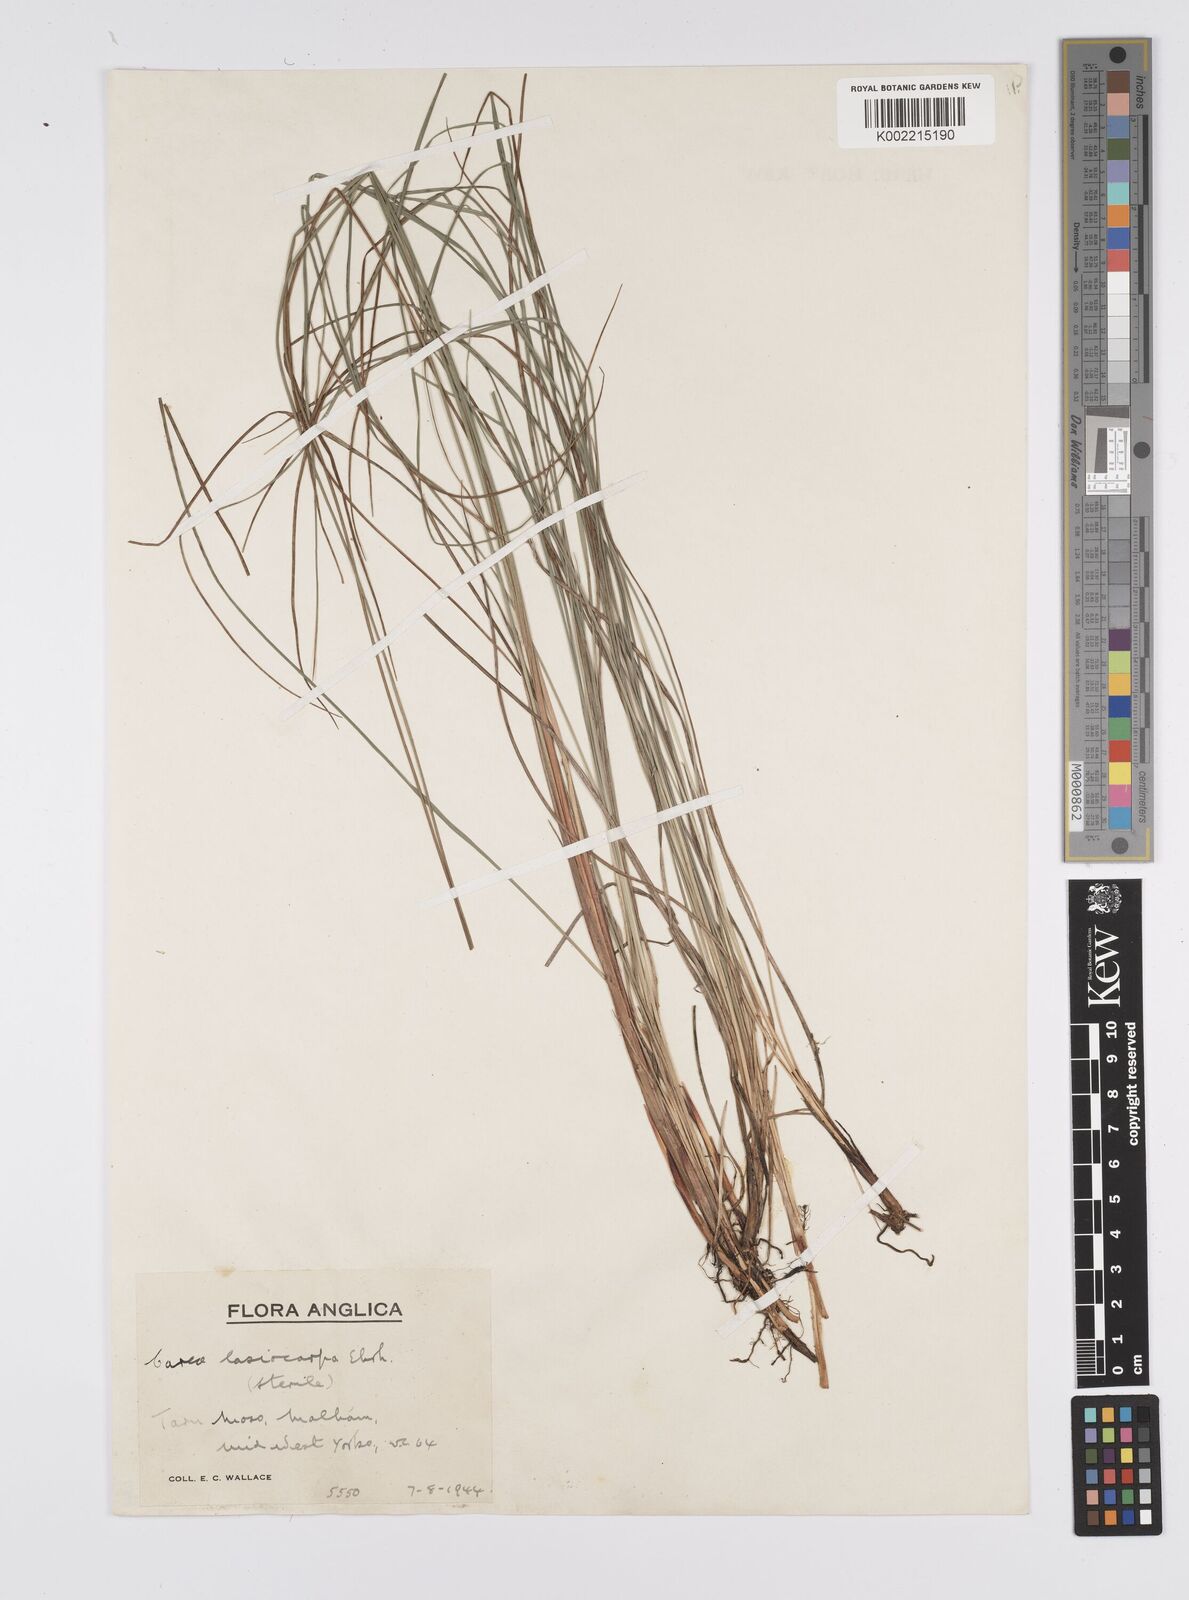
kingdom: Plantae
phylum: Tracheophyta
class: Liliopsida
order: Poales
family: Cyperaceae
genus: Carex
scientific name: Carex lasiocarpa
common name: Slender sedge
